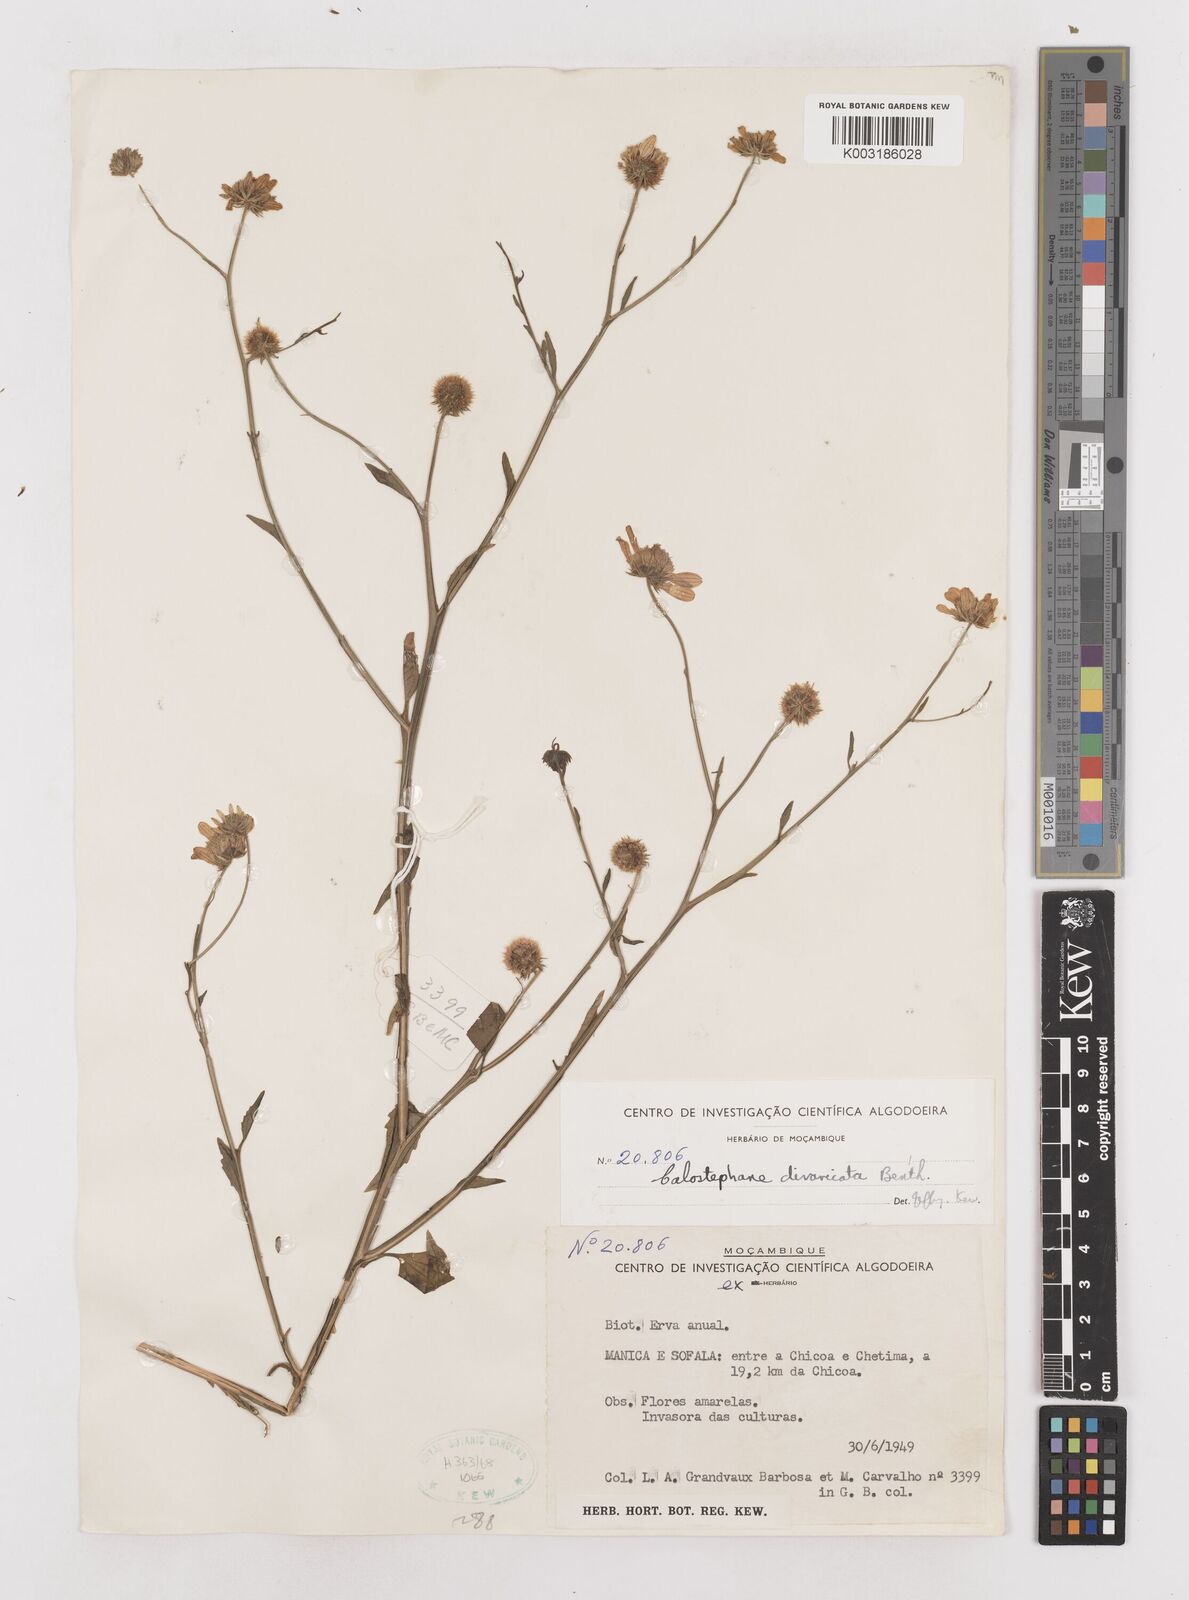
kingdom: Plantae
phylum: Tracheophyta
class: Magnoliopsida
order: Asterales
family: Asteraceae
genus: Calostephane
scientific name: Calostephane divaricata
